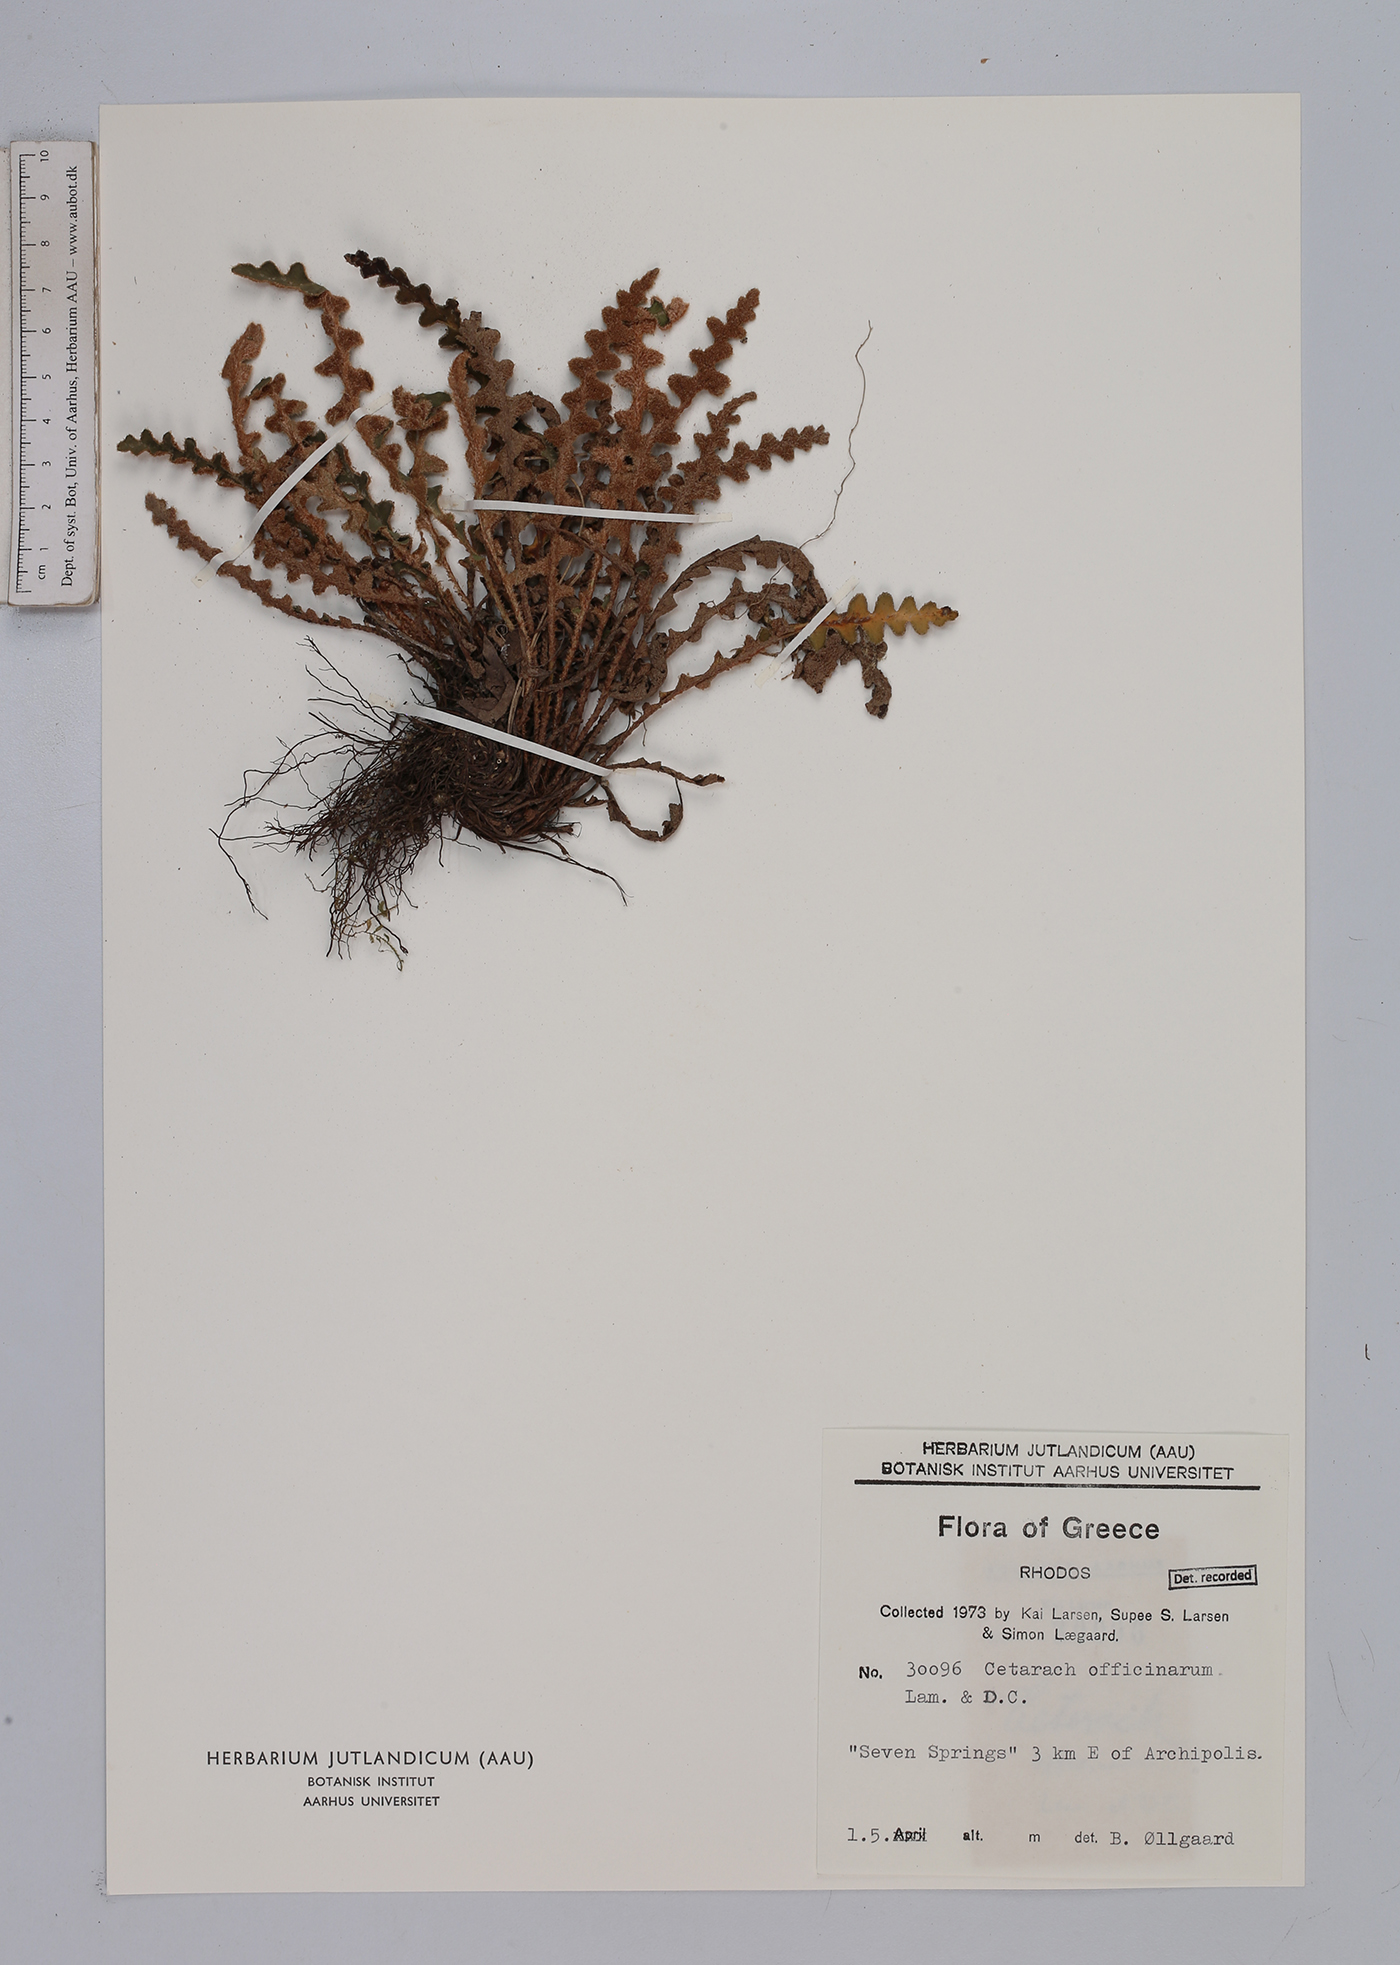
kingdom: Plantae
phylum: Tracheophyta
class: Polypodiopsida
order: Polypodiales
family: Aspleniaceae
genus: Asplenium
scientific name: Asplenium ceterach
